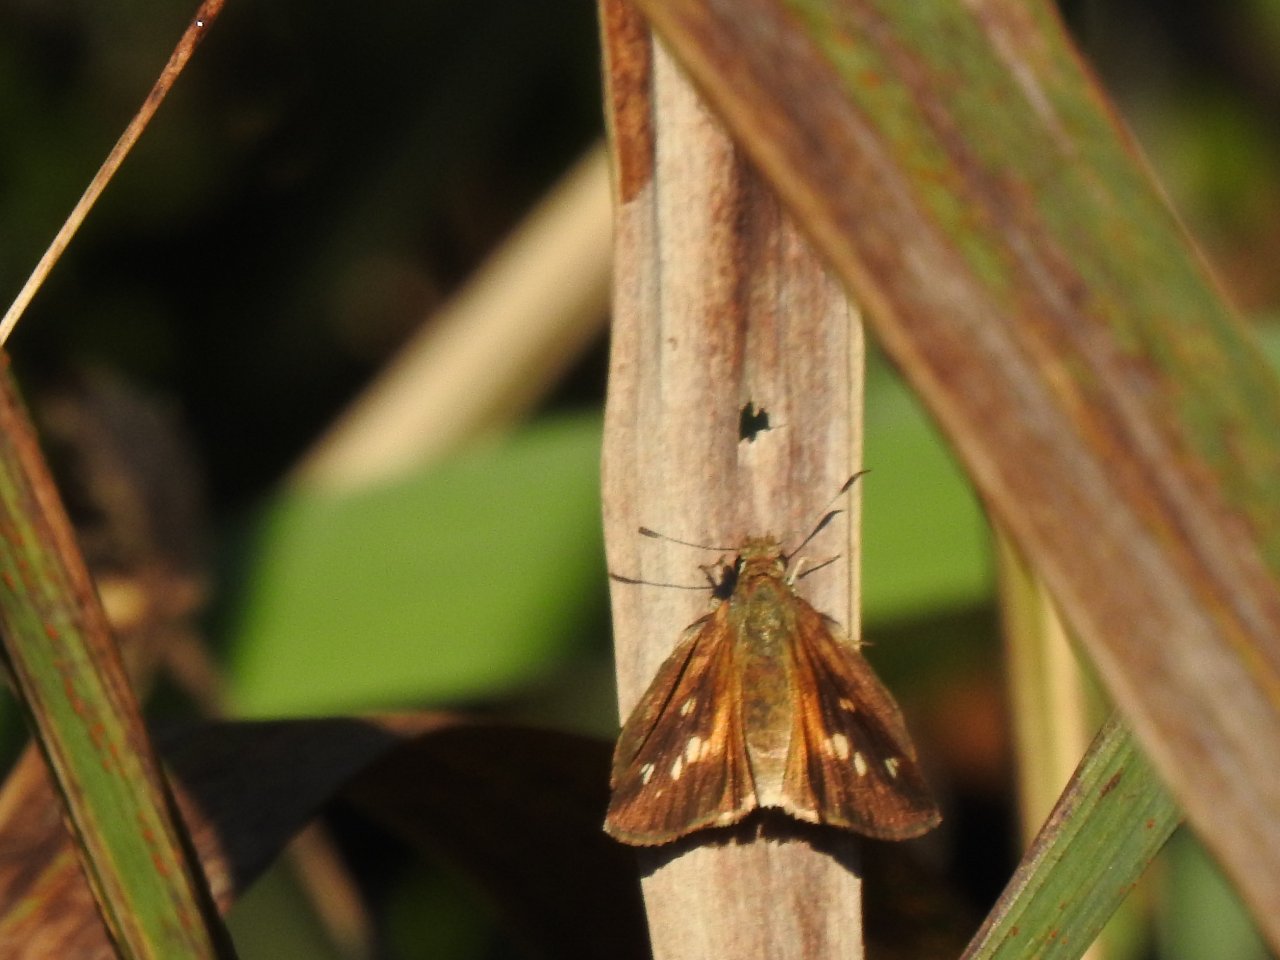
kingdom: Animalia
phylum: Arthropoda
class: Insecta
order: Lepidoptera
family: Hesperiidae
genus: Poanes
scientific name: Poanes viator
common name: Broad-winged Skipper
